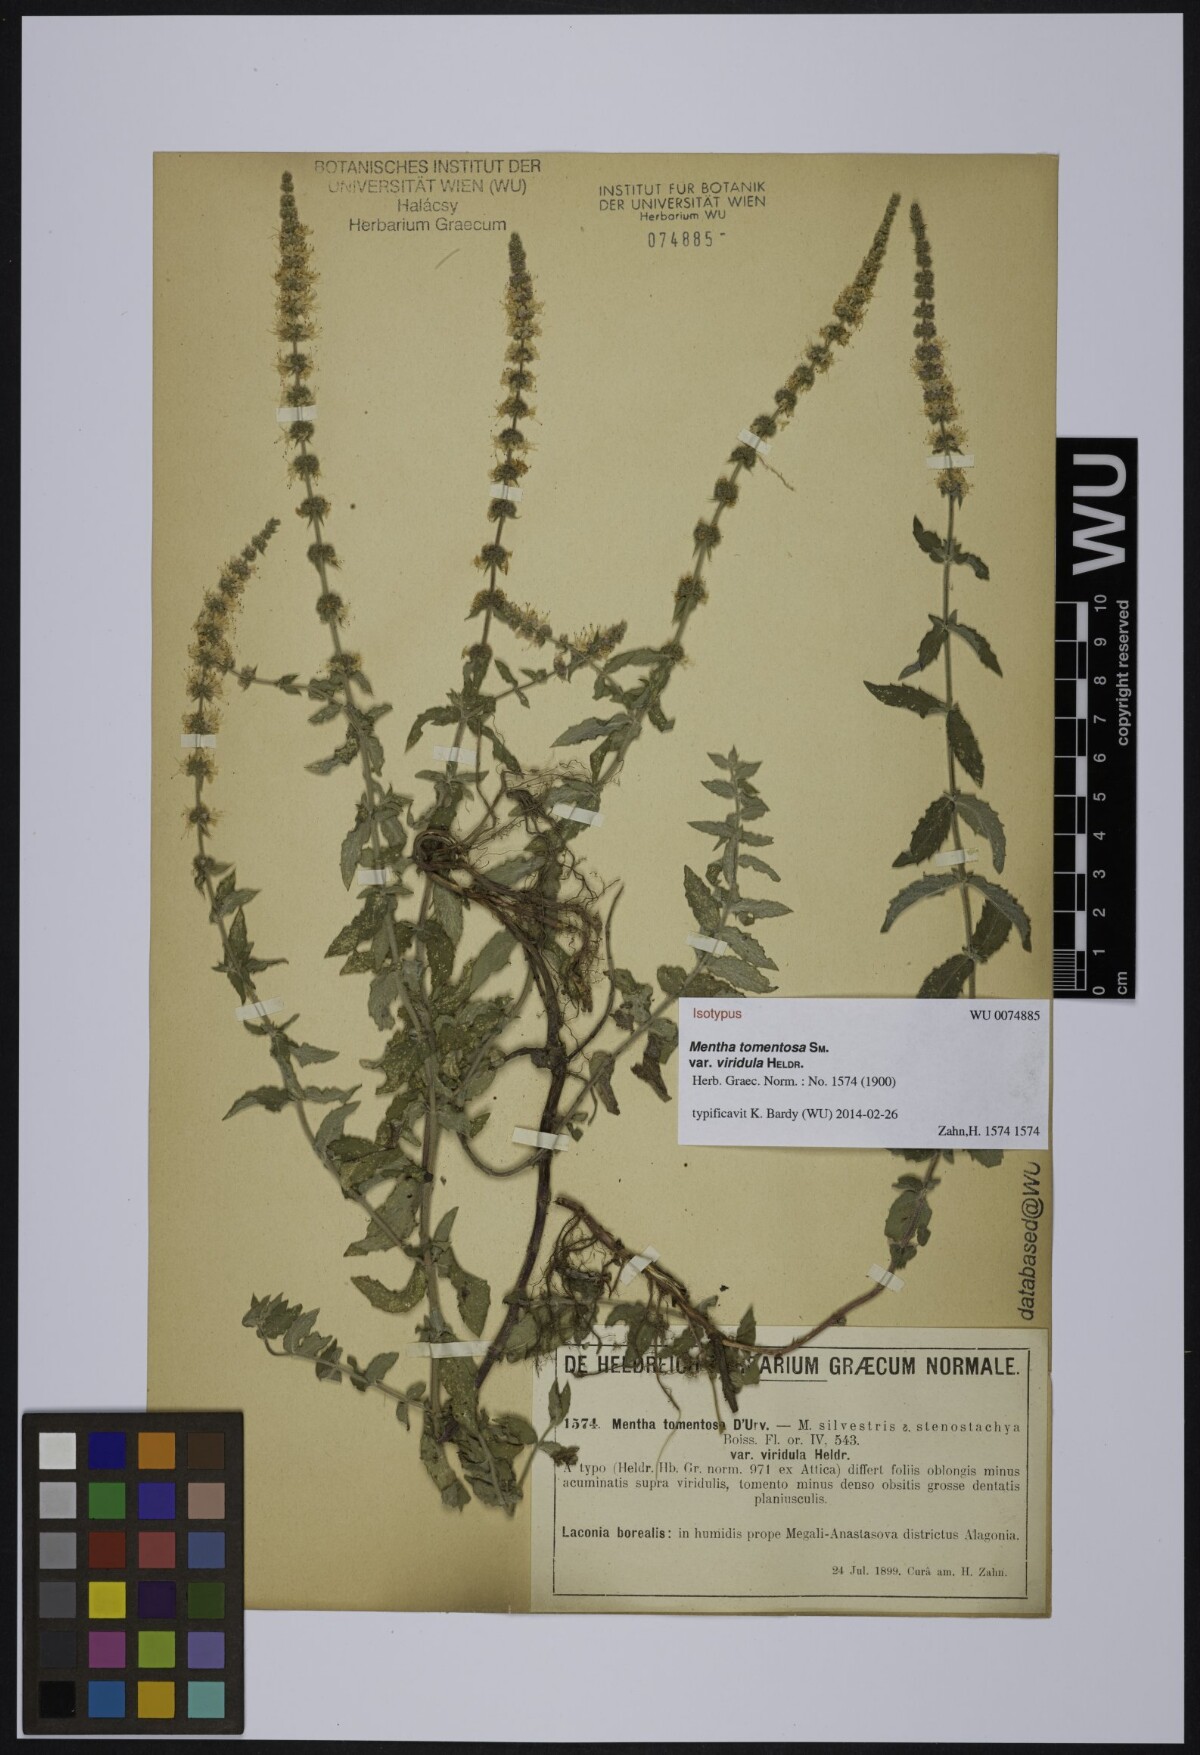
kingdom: Plantae
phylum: Tracheophyta
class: Magnoliopsida
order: Lamiales
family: Lamiaceae
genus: Mentha
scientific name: Mentha spicata
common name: Spearmint
